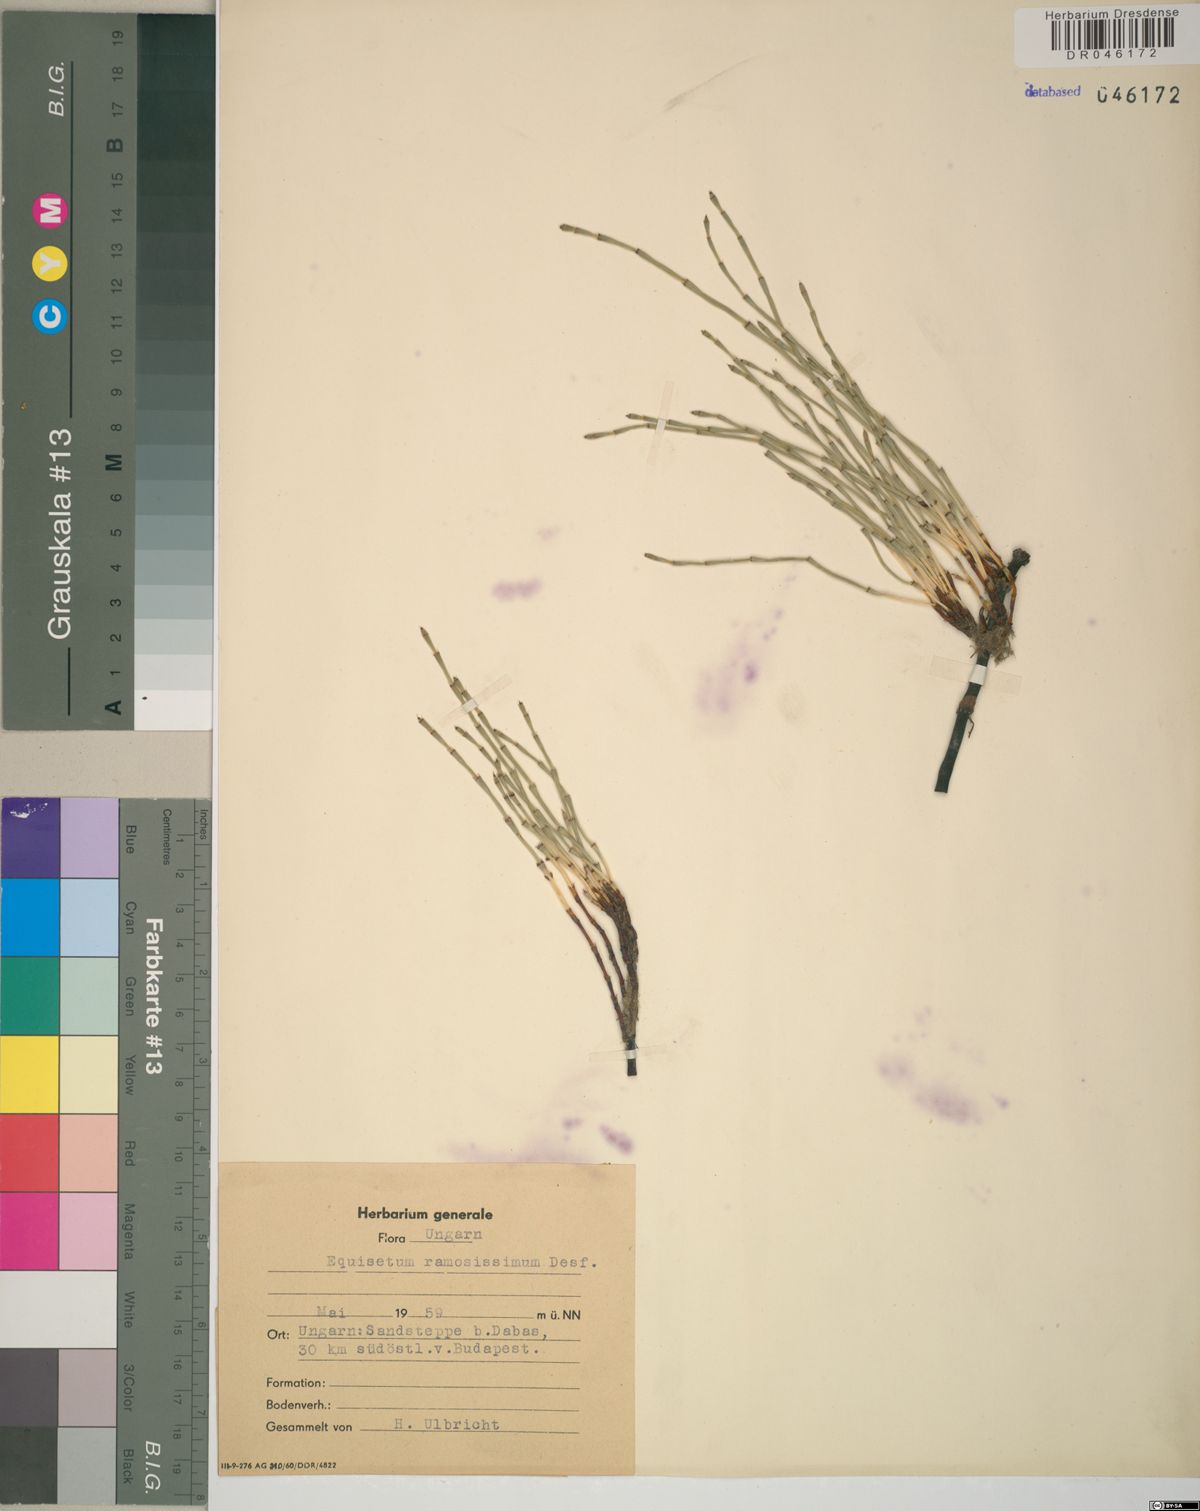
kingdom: Plantae
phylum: Tracheophyta
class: Polypodiopsida
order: Equisetales
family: Equisetaceae
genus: Equisetum
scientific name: Equisetum ramosissimum
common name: Branched horsetail
